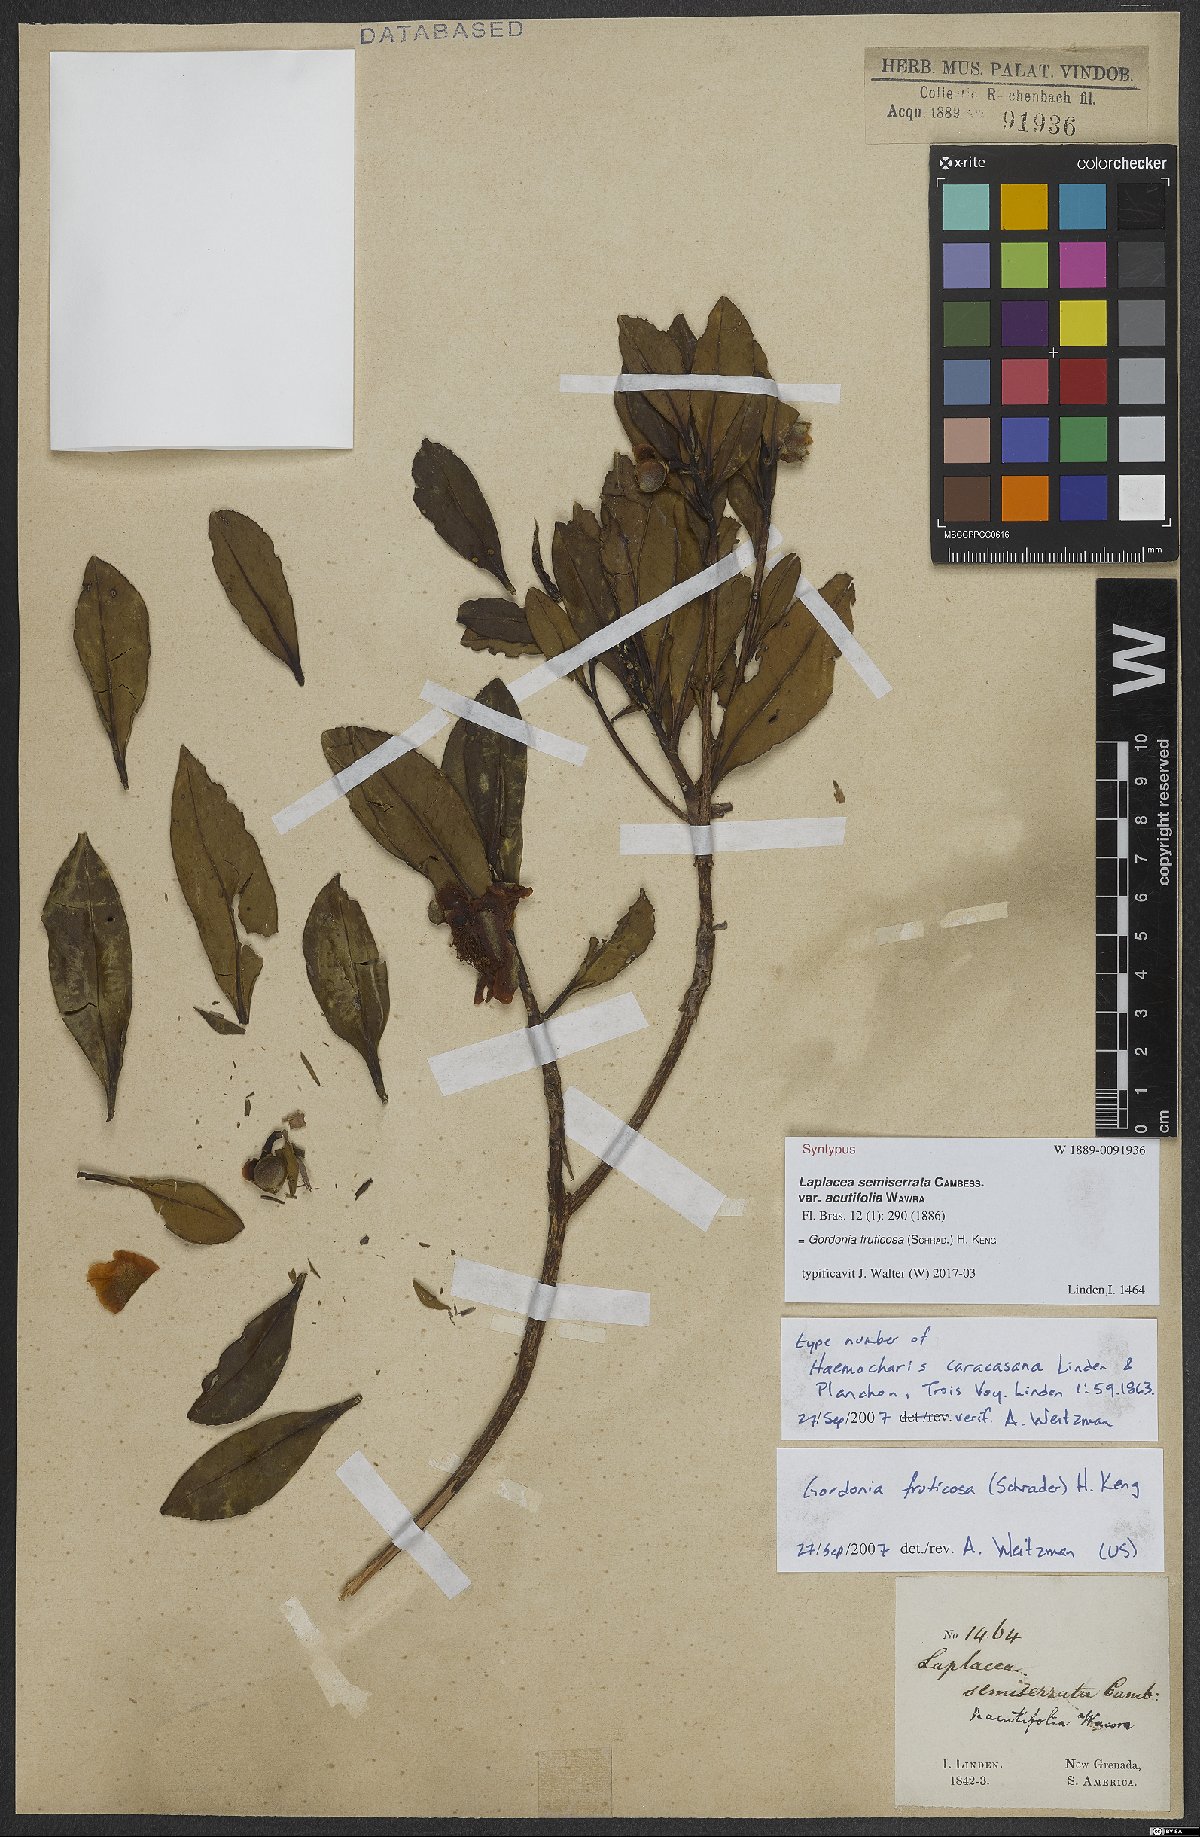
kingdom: Plantae
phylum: Tracheophyta
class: Magnoliopsida
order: Ericales
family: Theaceae
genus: Gordonia
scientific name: Gordonia fruticosa
